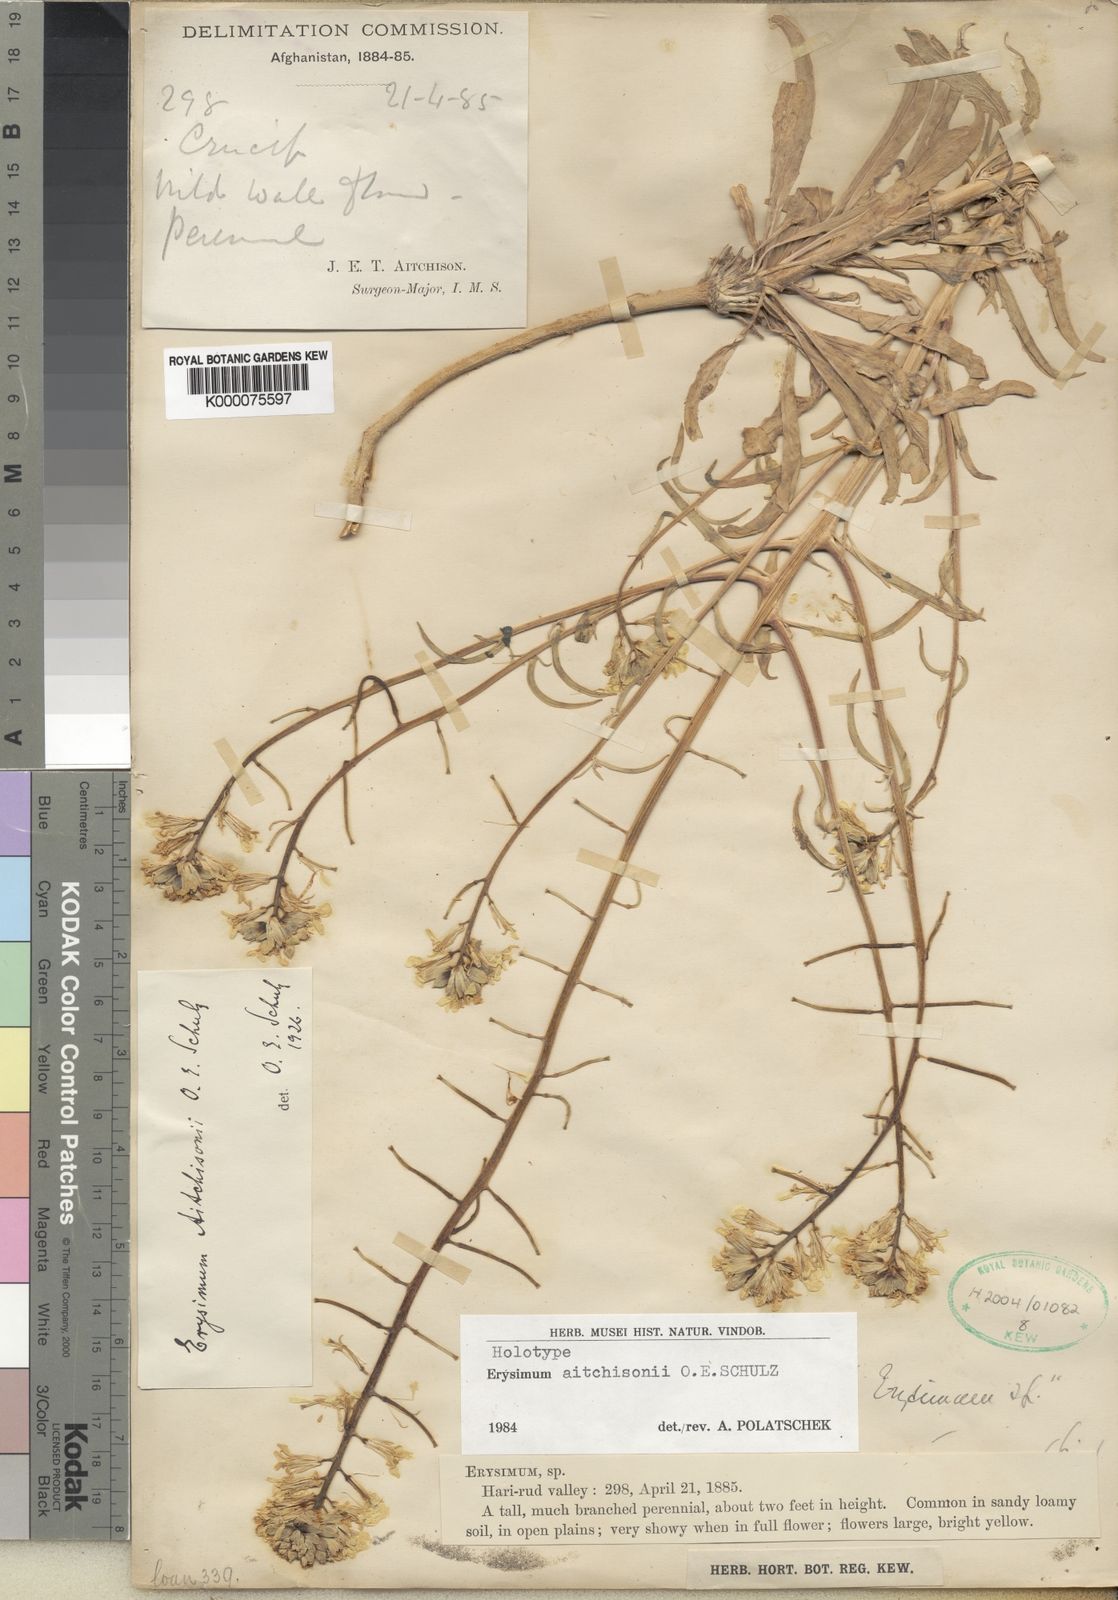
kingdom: Plantae
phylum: Tracheophyta
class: Magnoliopsida
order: Brassicales
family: Brassicaceae
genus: Erysimum
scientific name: Erysimum
